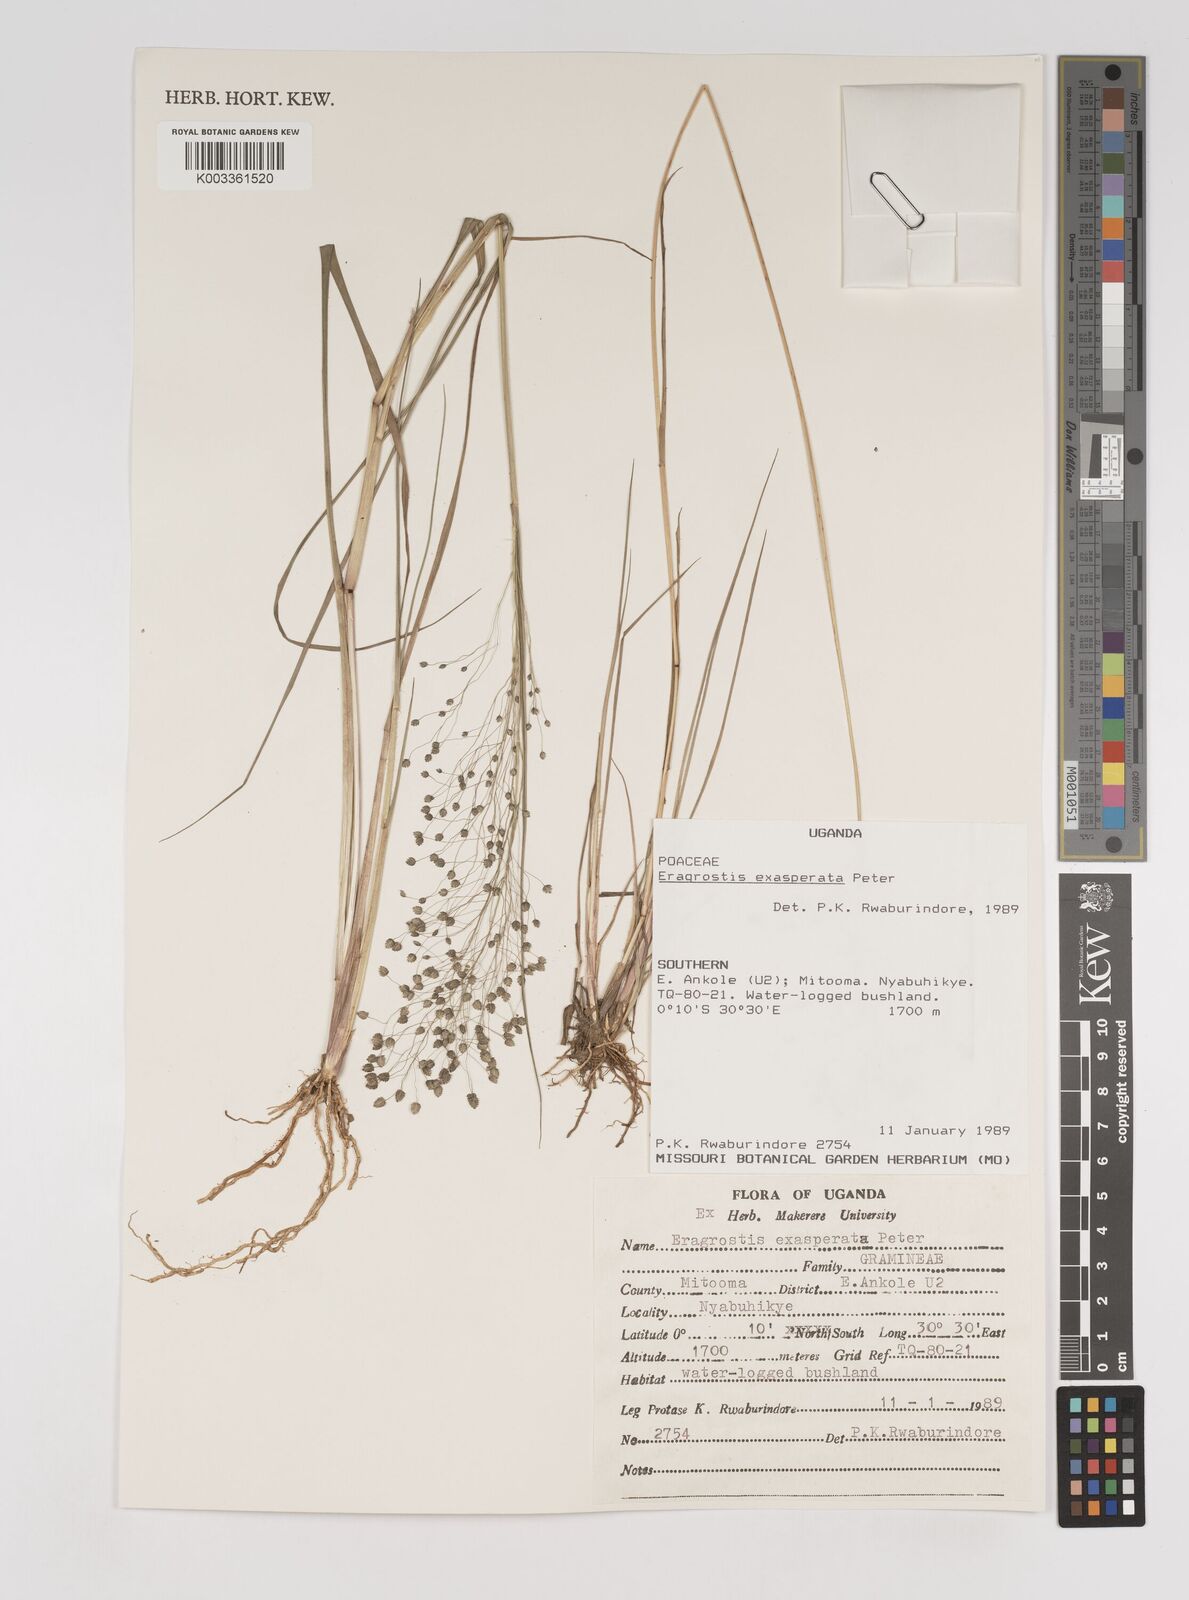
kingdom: Plantae
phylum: Tracheophyta
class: Liliopsida
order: Poales
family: Poaceae
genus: Eragrostis
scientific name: Eragrostis exasperata
